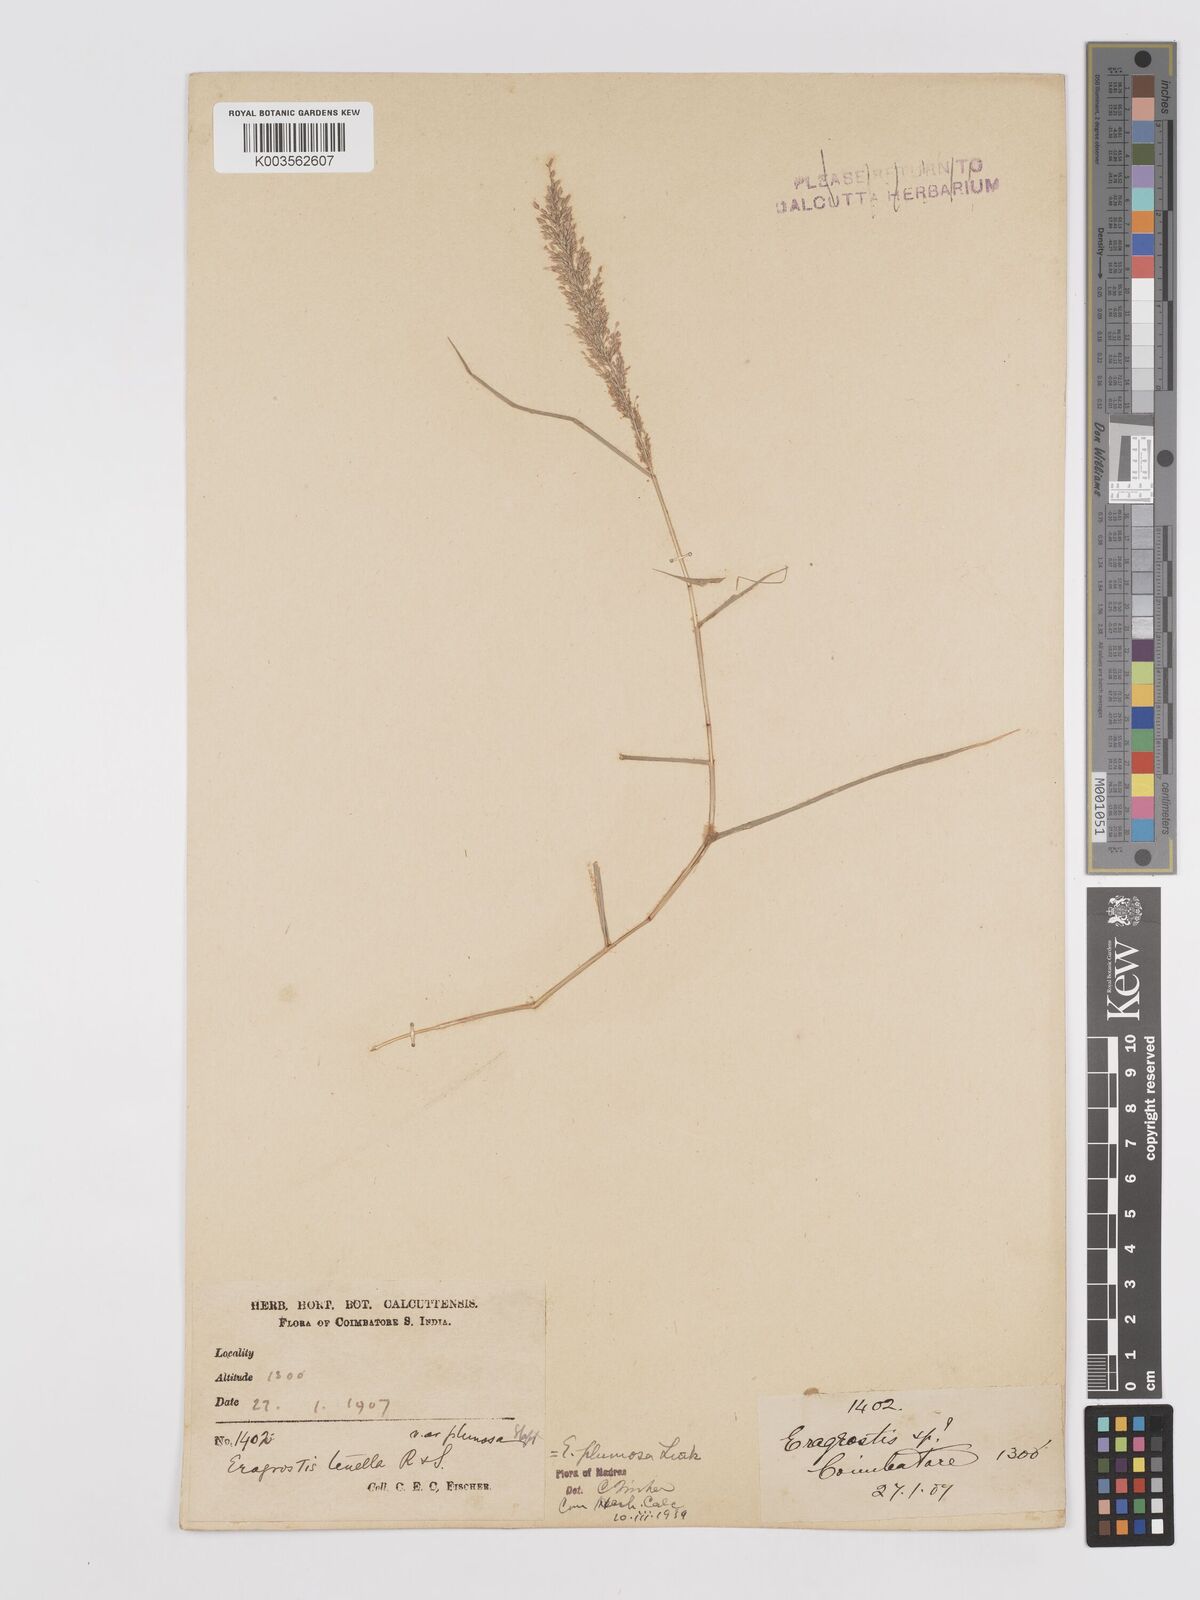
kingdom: Plantae
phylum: Tracheophyta
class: Liliopsida
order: Poales
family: Poaceae
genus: Eragrostis
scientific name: Eragrostis tenella
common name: Japanese lovegrass
